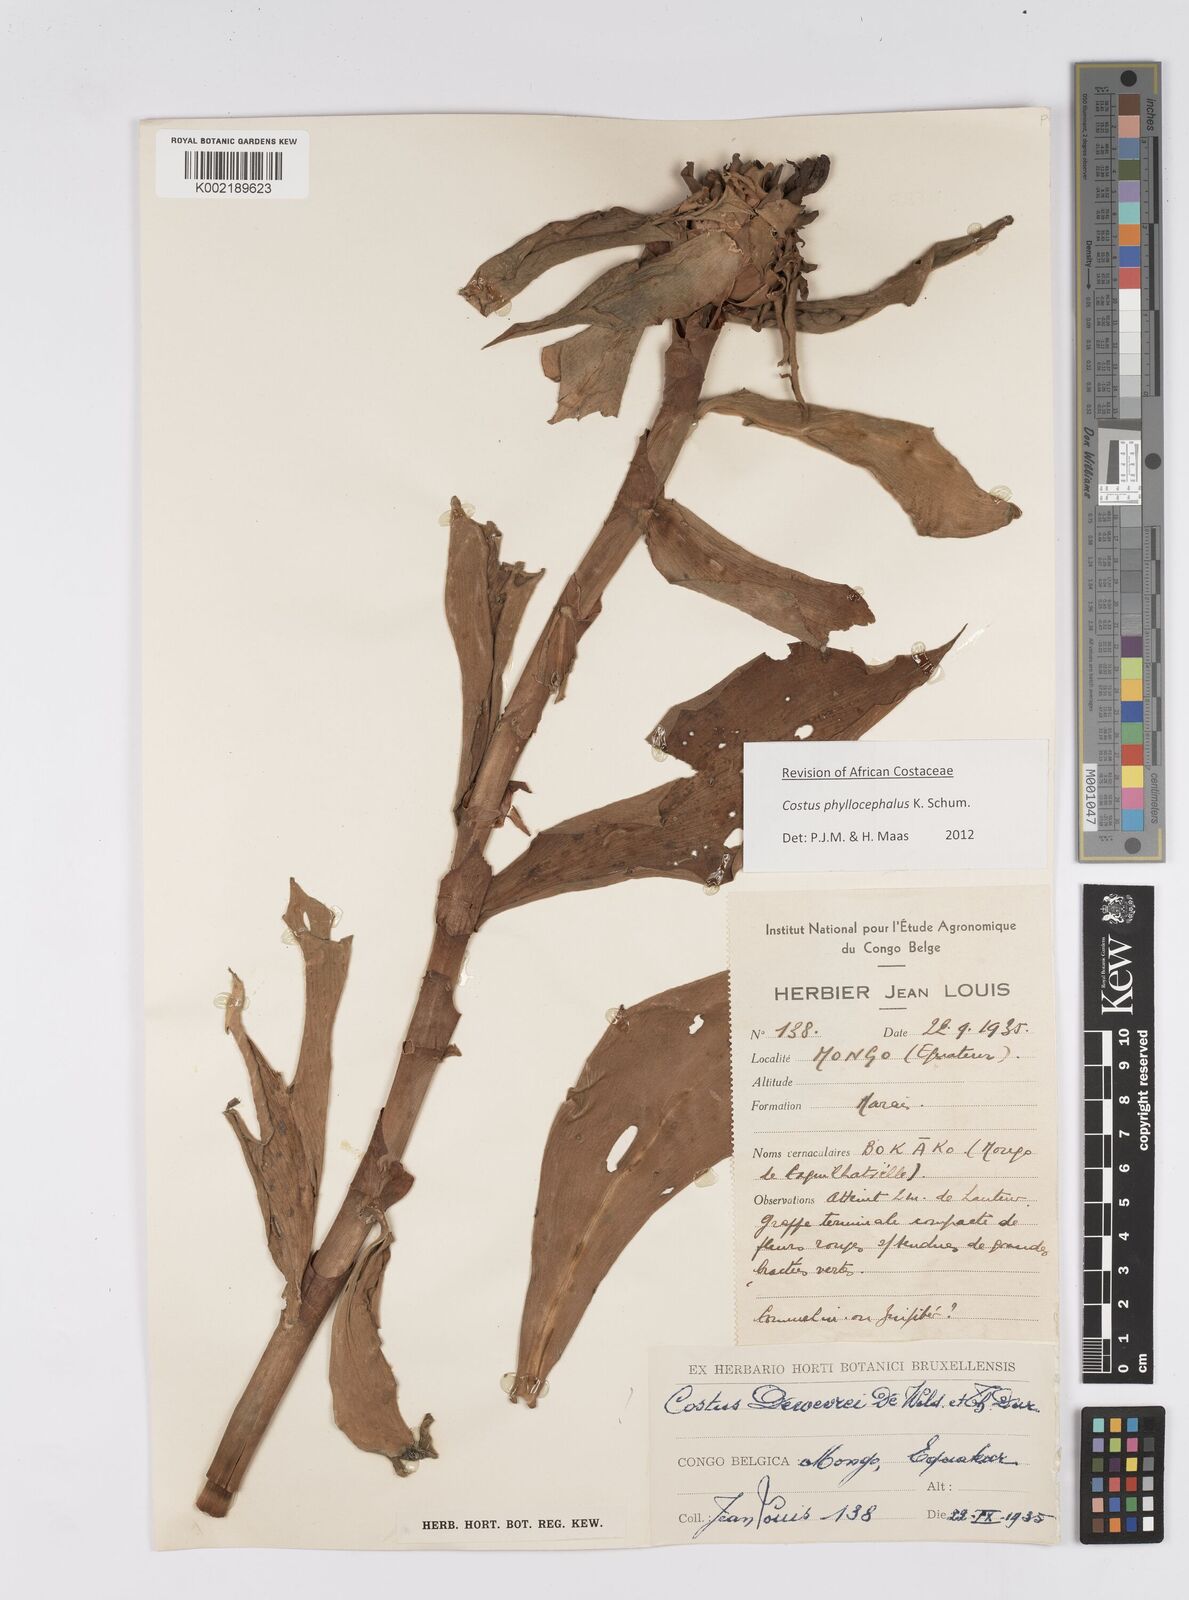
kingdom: Plantae
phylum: Tracheophyta
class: Liliopsida
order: Zingiberales
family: Costaceae
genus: Costus
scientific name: Costus phyllocephalus
